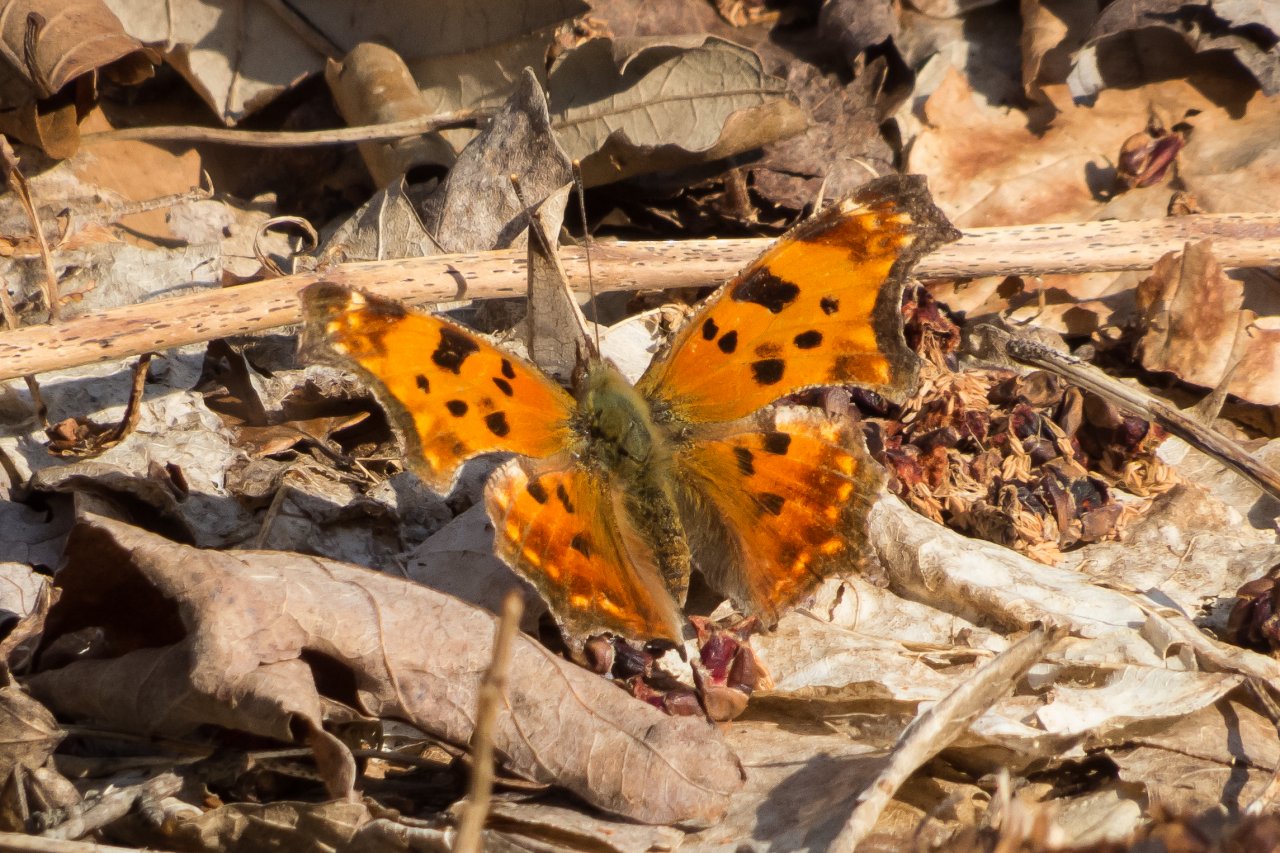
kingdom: Animalia
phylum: Arthropoda
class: Insecta
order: Lepidoptera
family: Nymphalidae
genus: Polygonia
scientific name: Polygonia comma
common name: Eastern Comma
